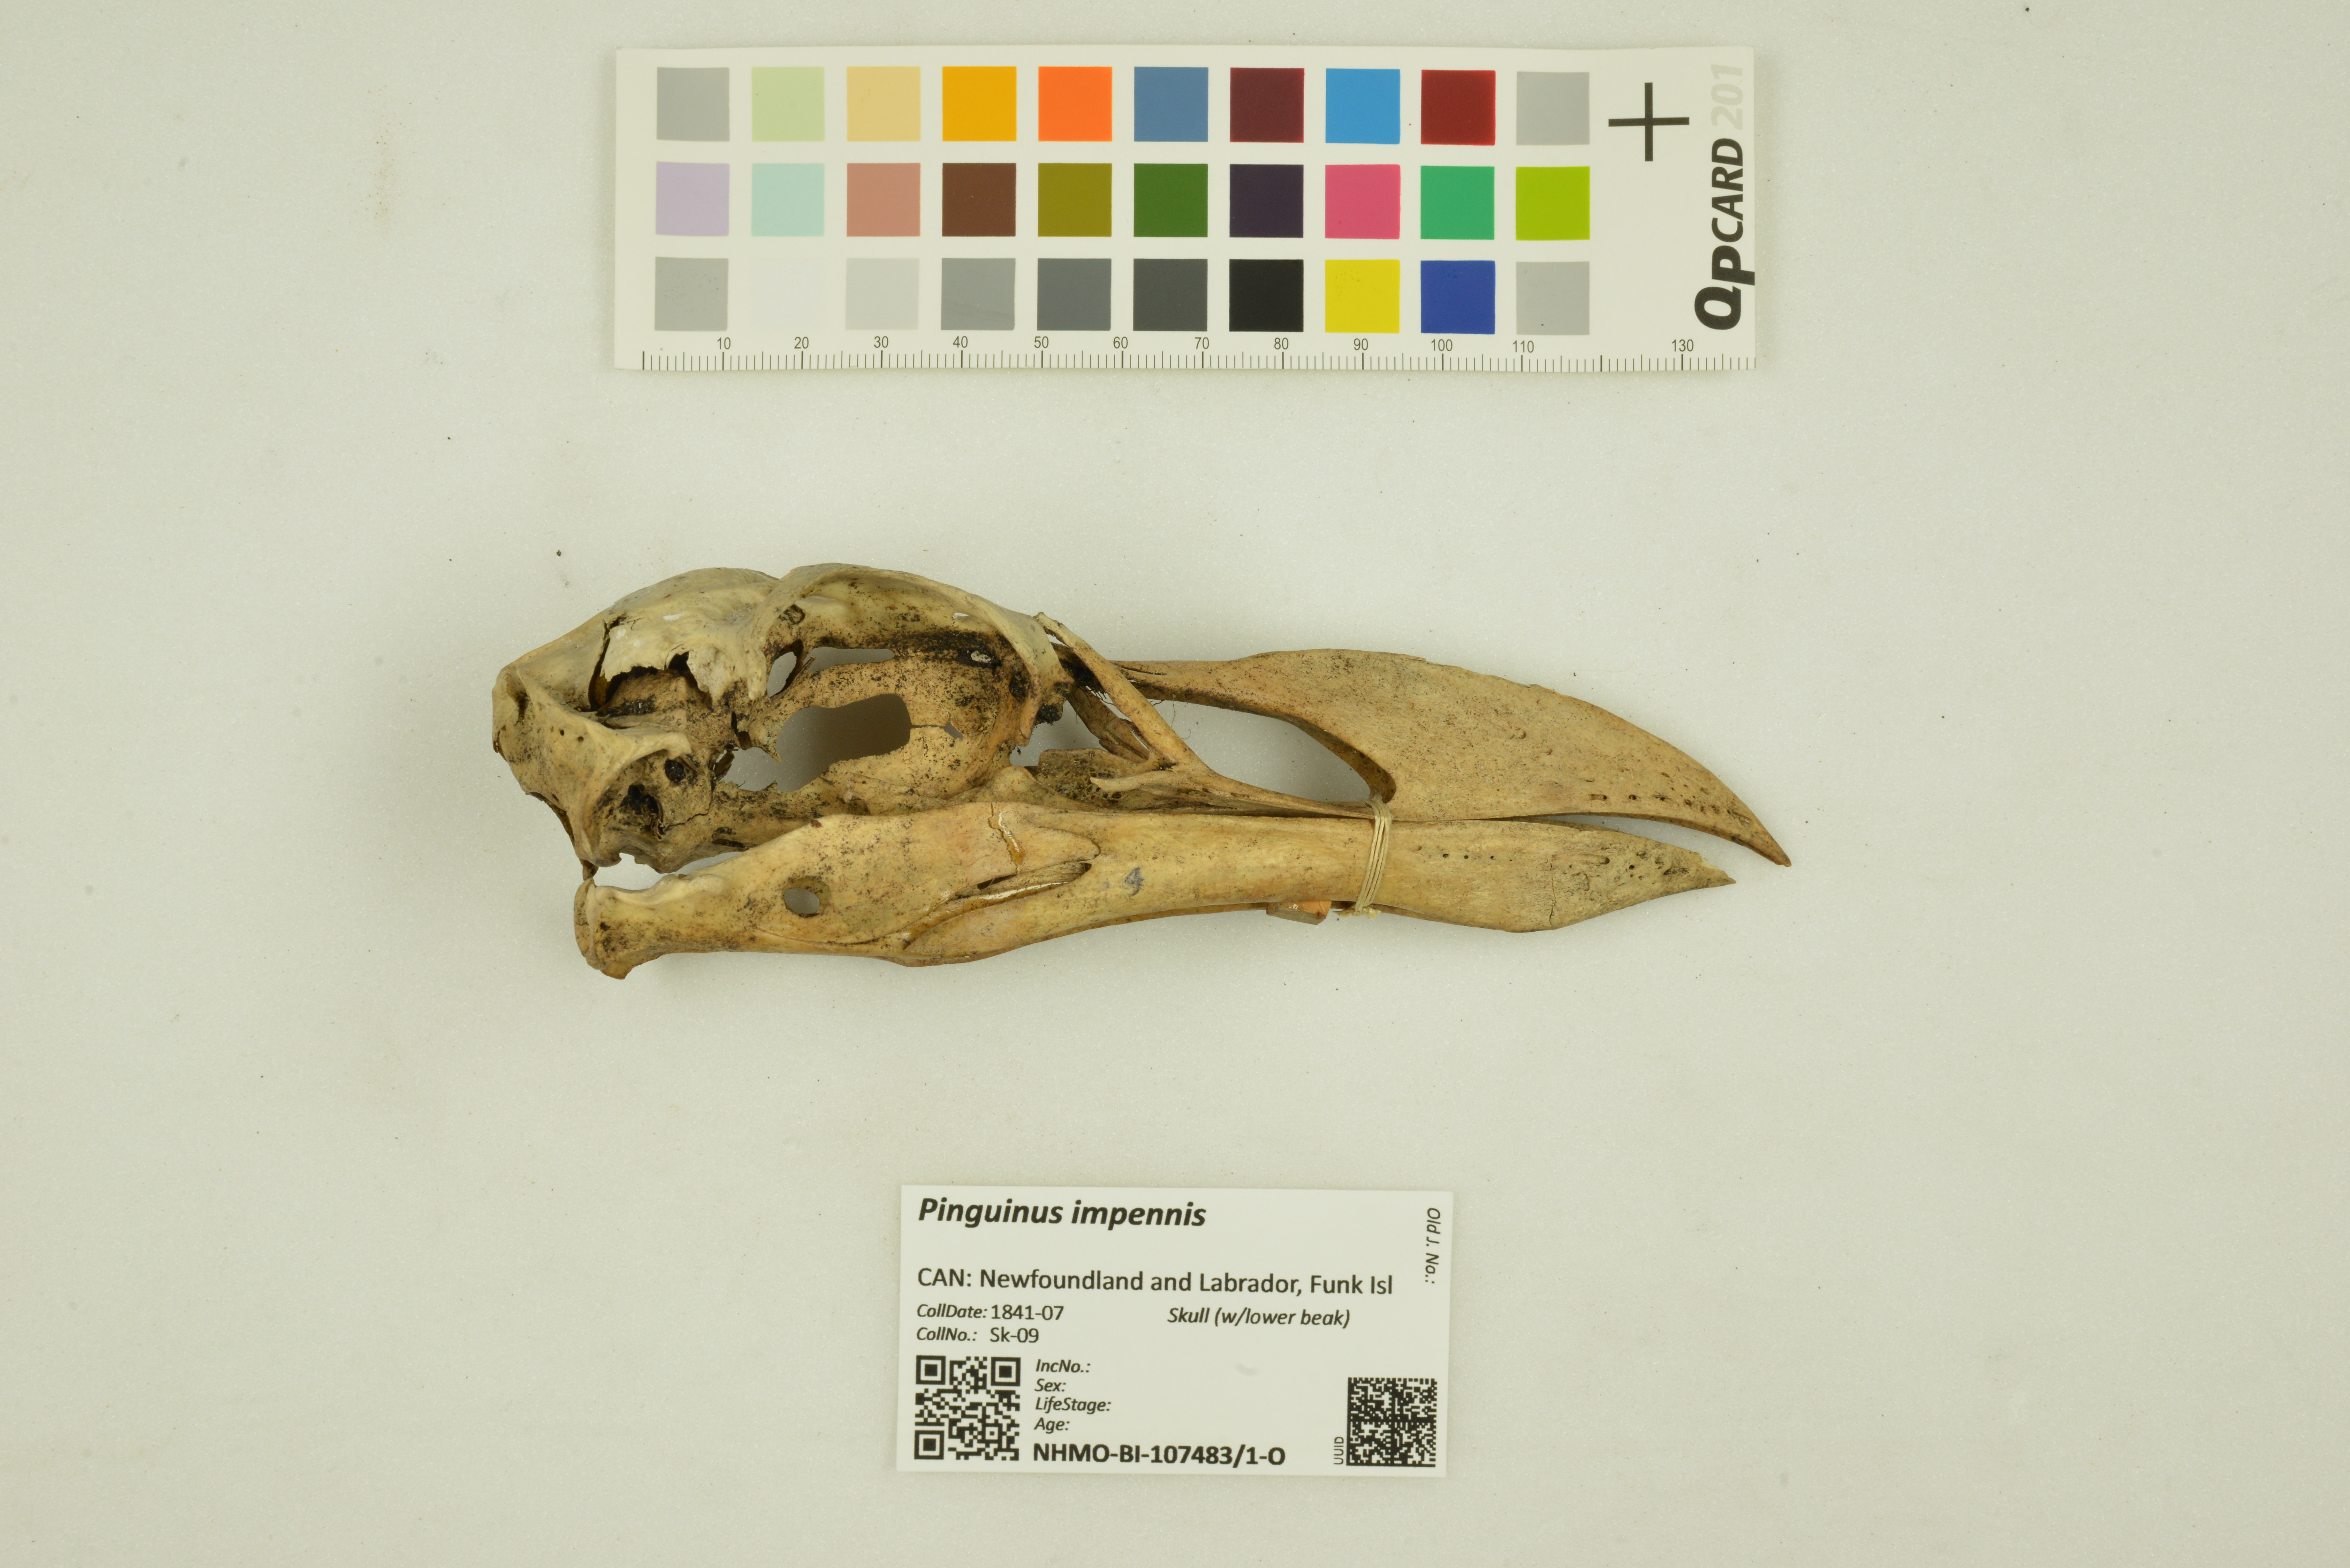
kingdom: Animalia
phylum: Chordata
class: Aves
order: Charadriiformes
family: Alcidae
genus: Pinguinus
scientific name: Pinguinus impennis
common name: Great auk
